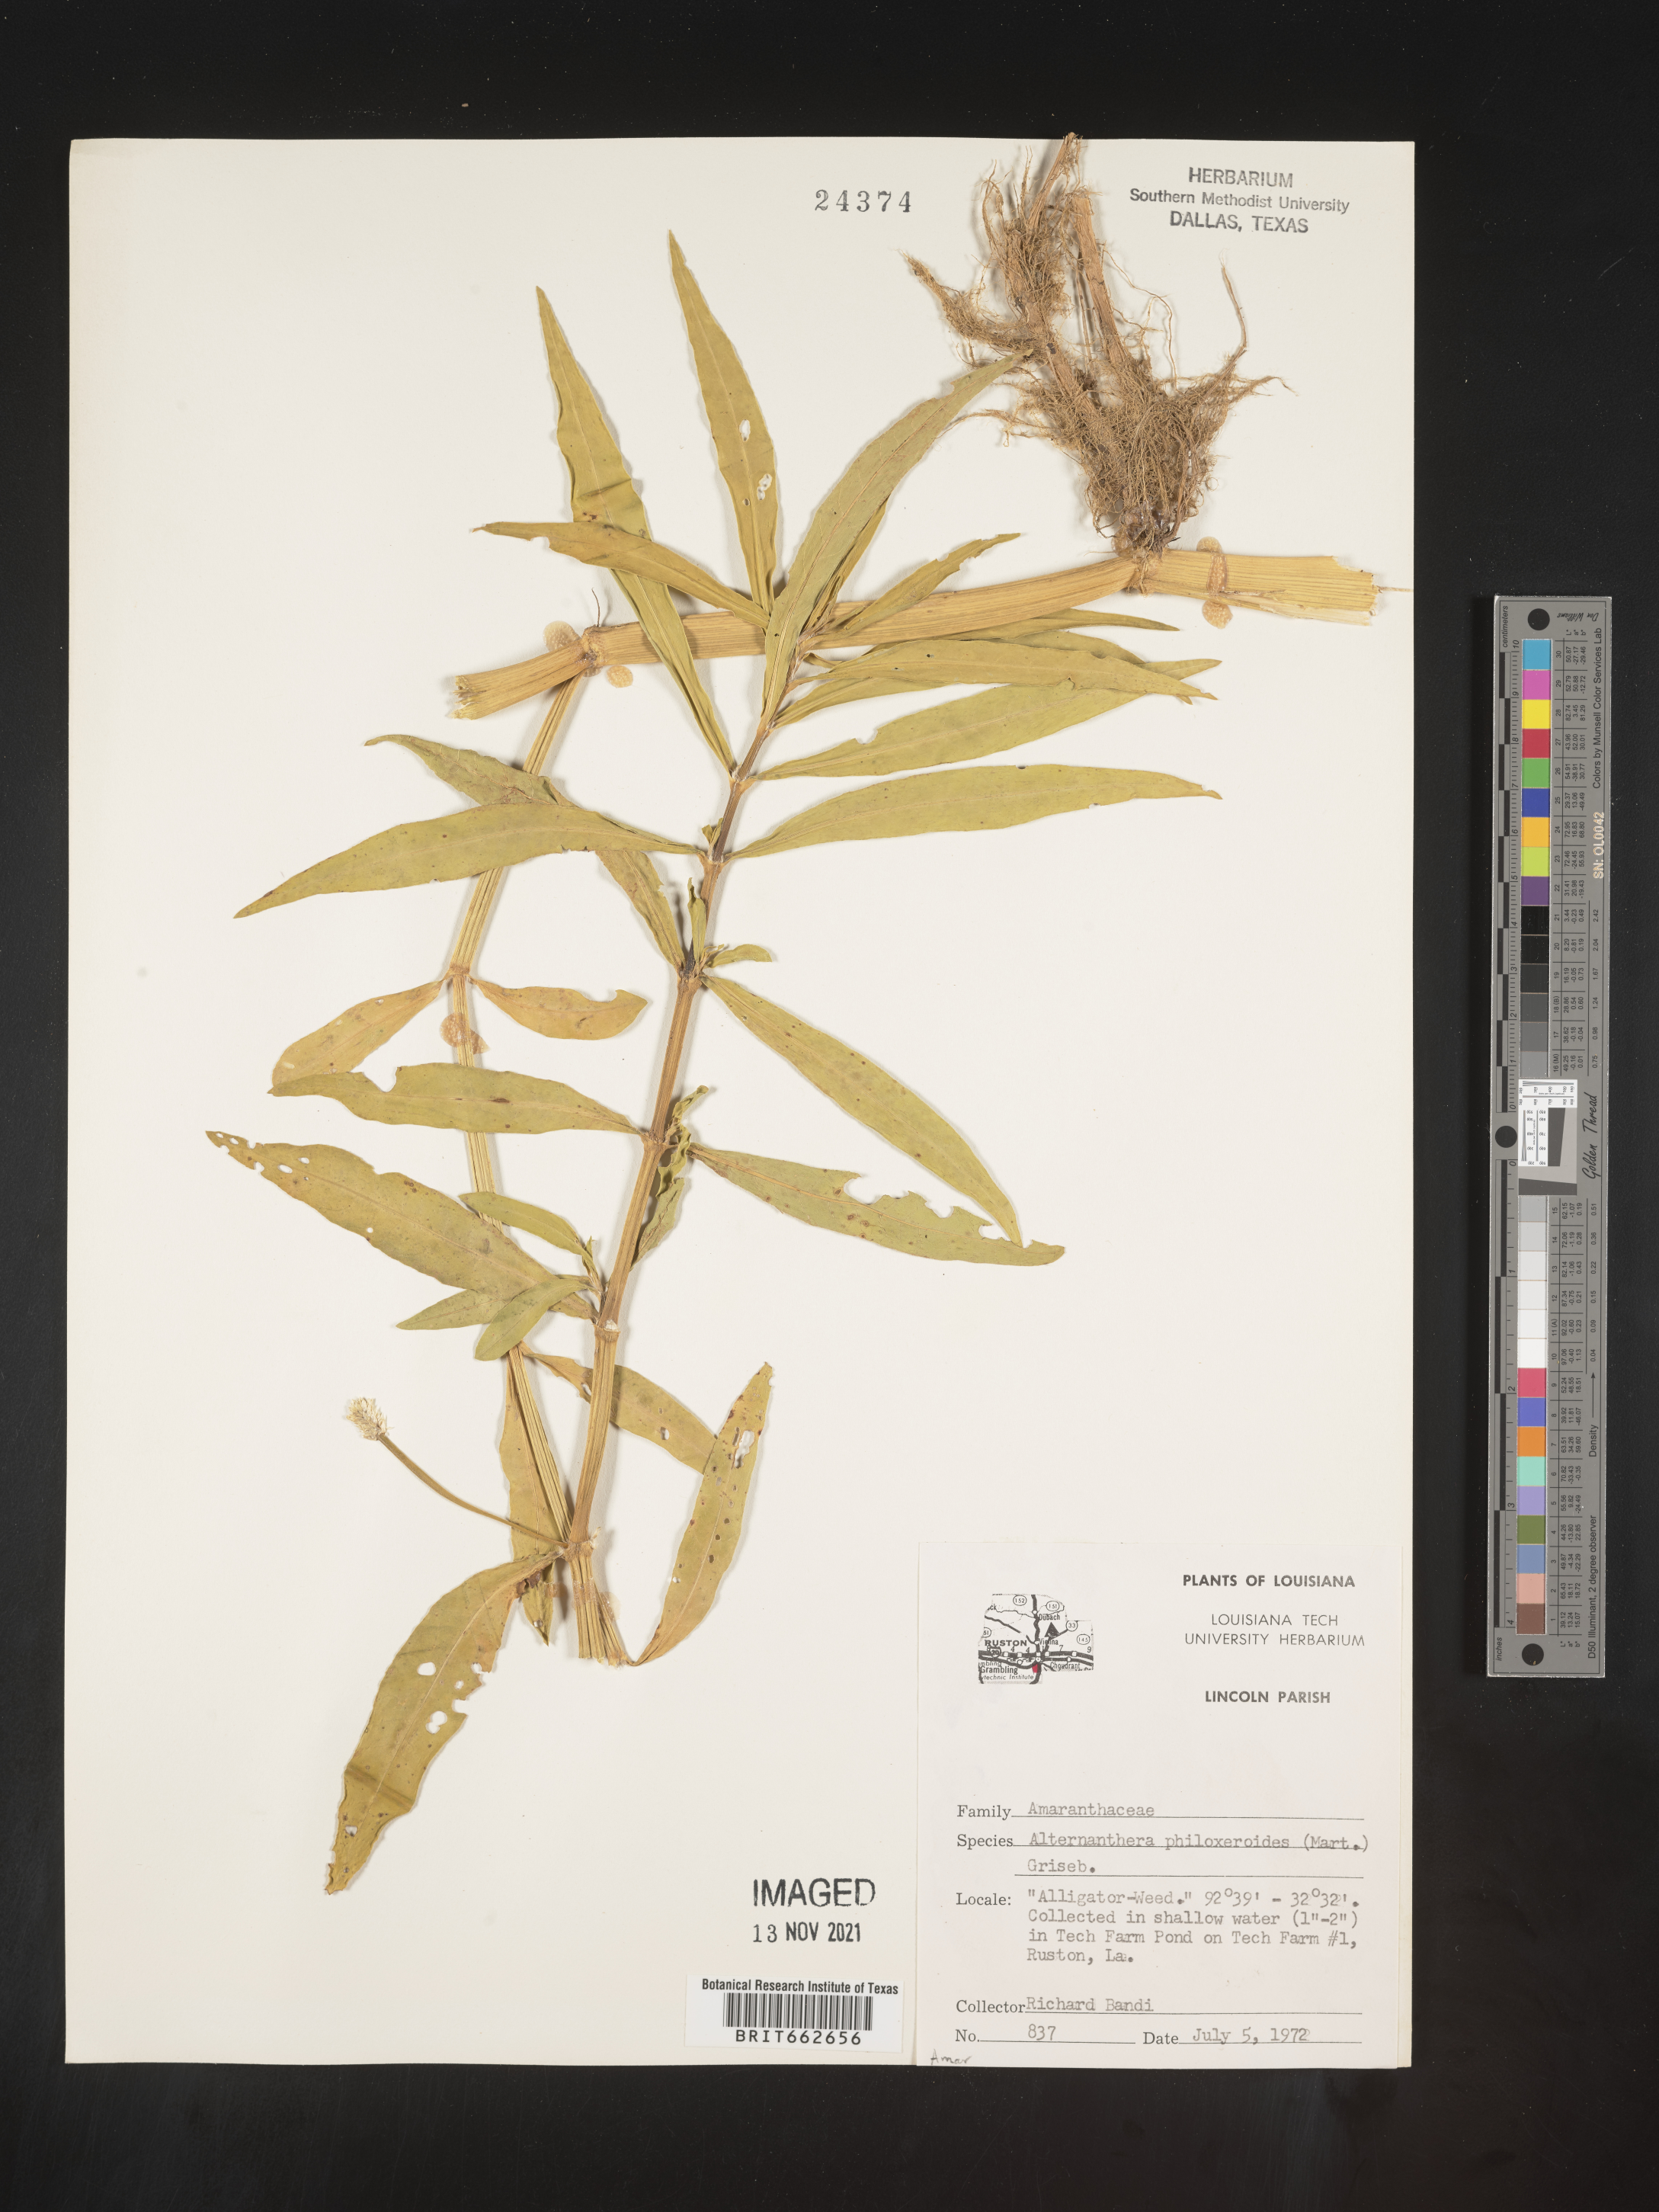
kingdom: Plantae
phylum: Tracheophyta
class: Magnoliopsida
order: Caryophyllales
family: Amaranthaceae
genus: Alternanthera
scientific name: Alternanthera philoxeroides
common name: Alligatorweed
